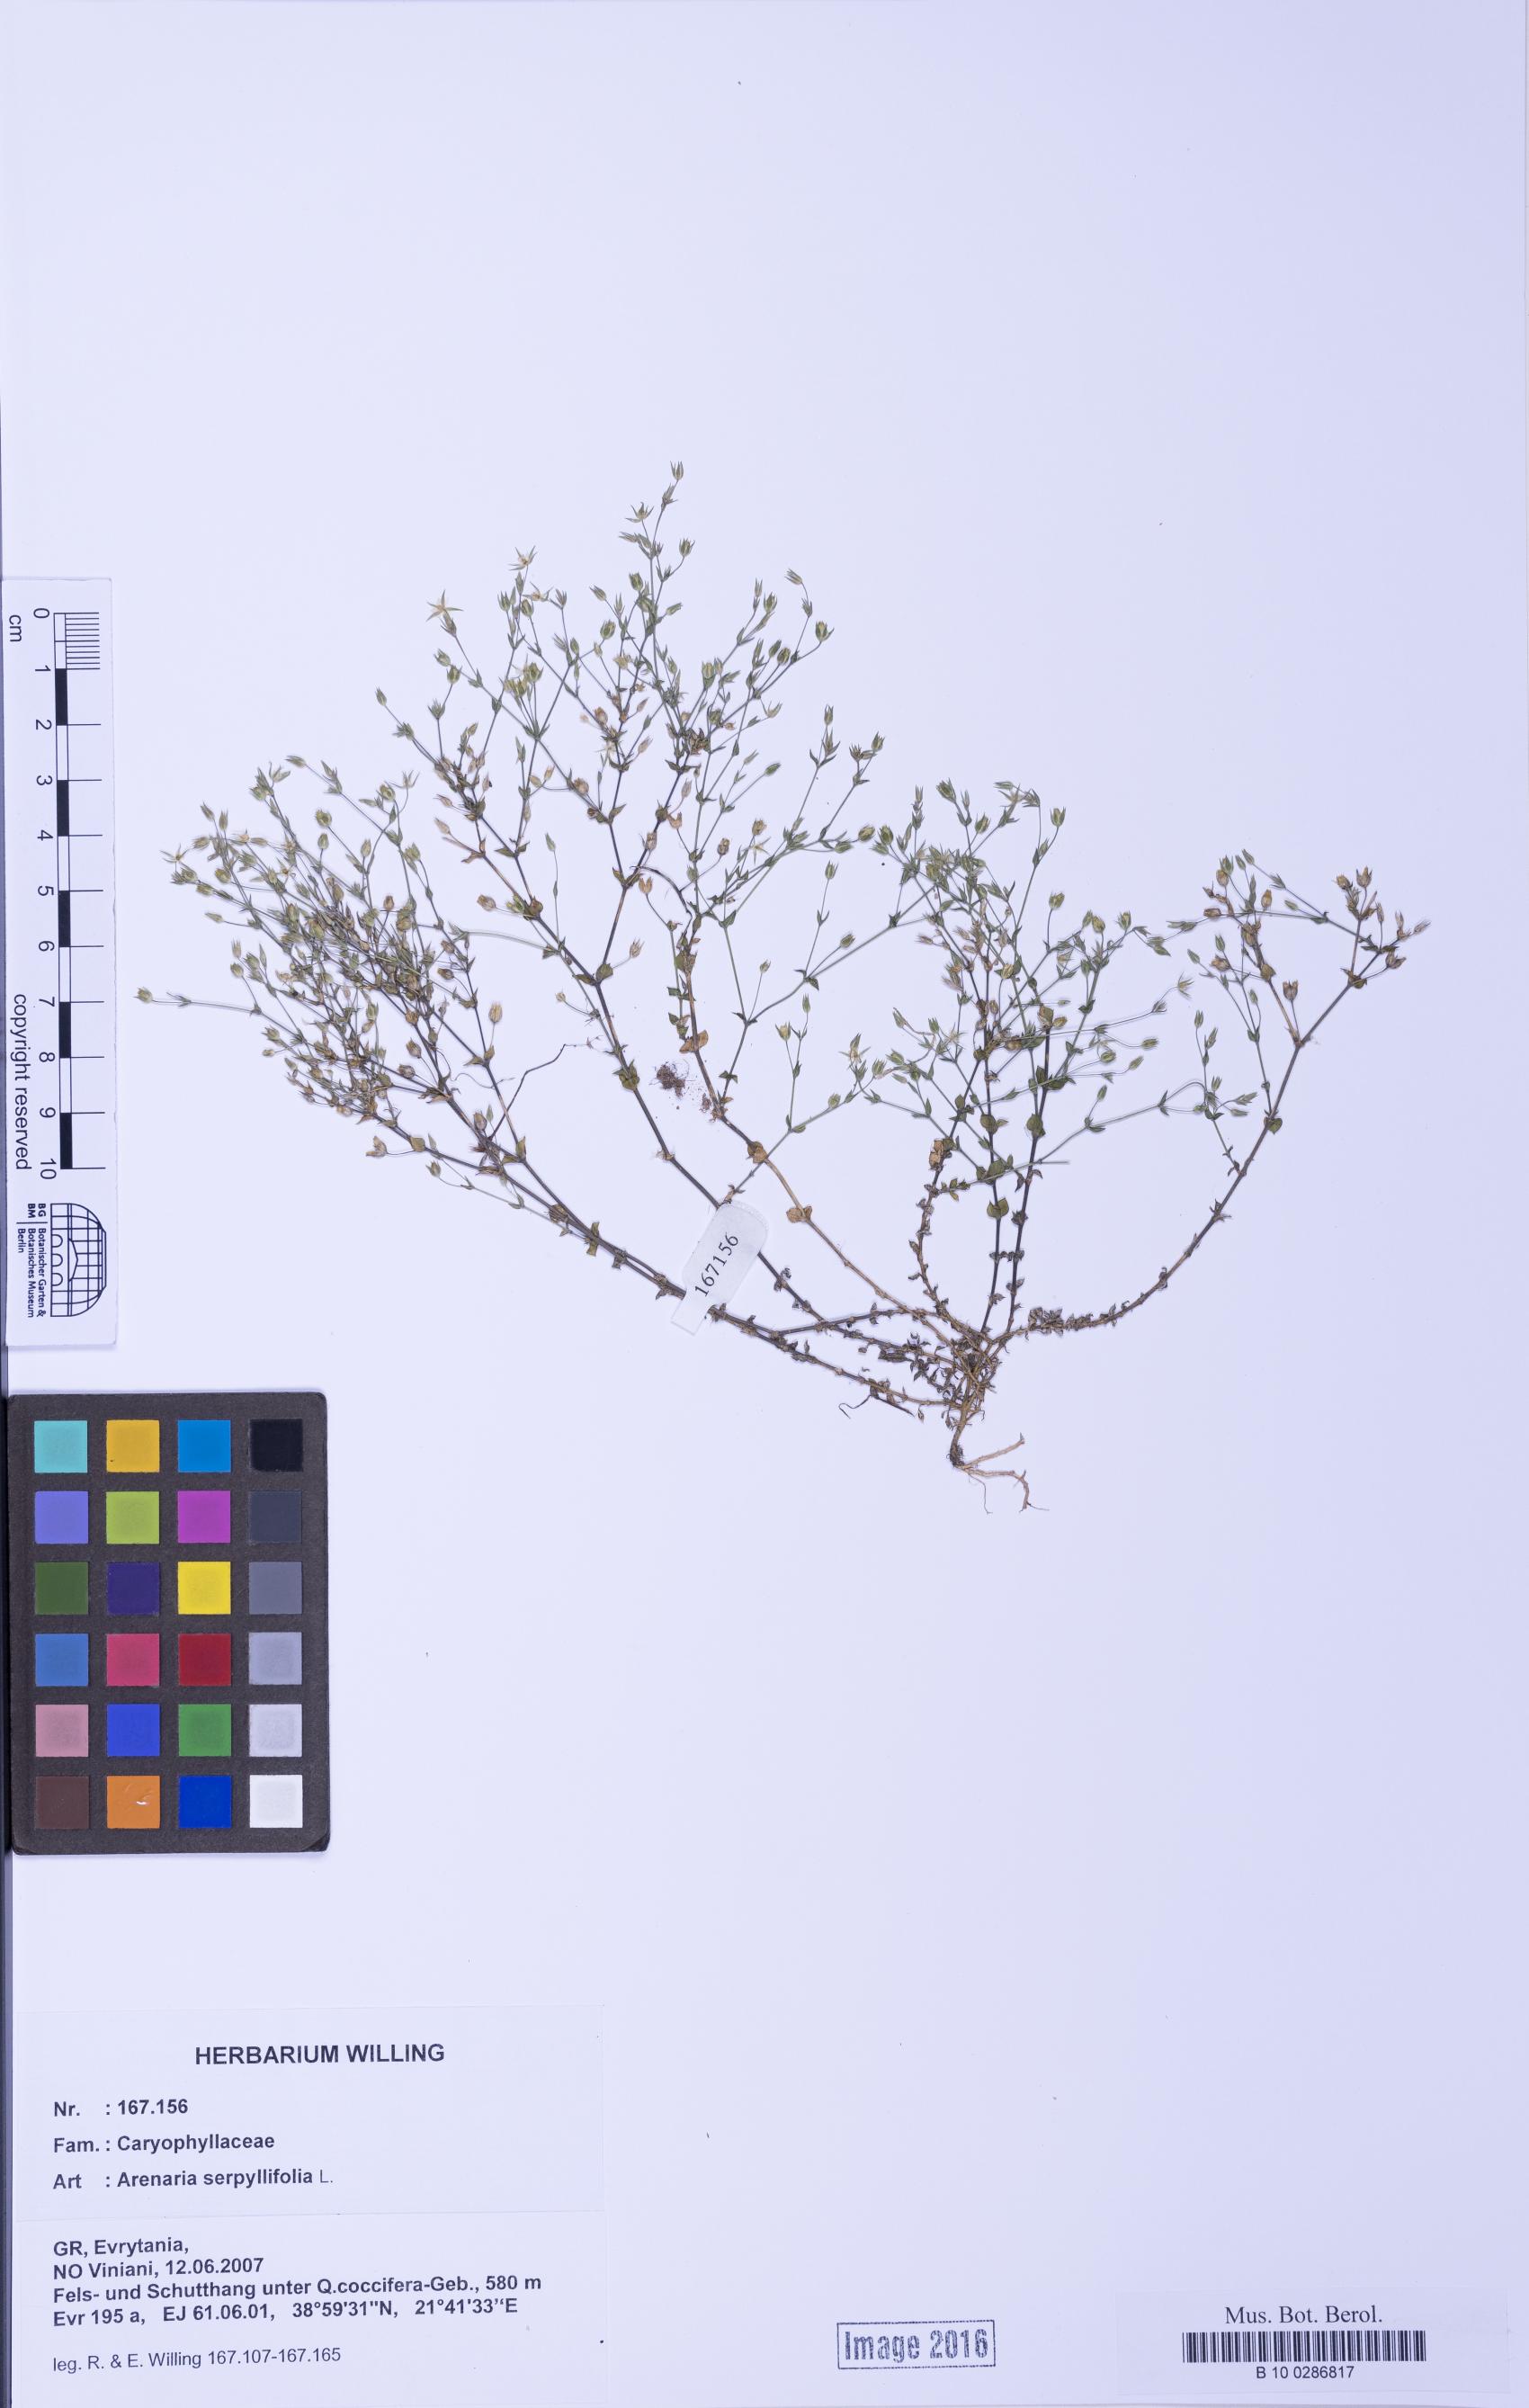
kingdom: Plantae
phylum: Tracheophyta
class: Magnoliopsida
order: Caryophyllales
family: Caryophyllaceae
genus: Arenaria
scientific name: Arenaria serpyllifolia
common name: Thyme-leaved sandwort
